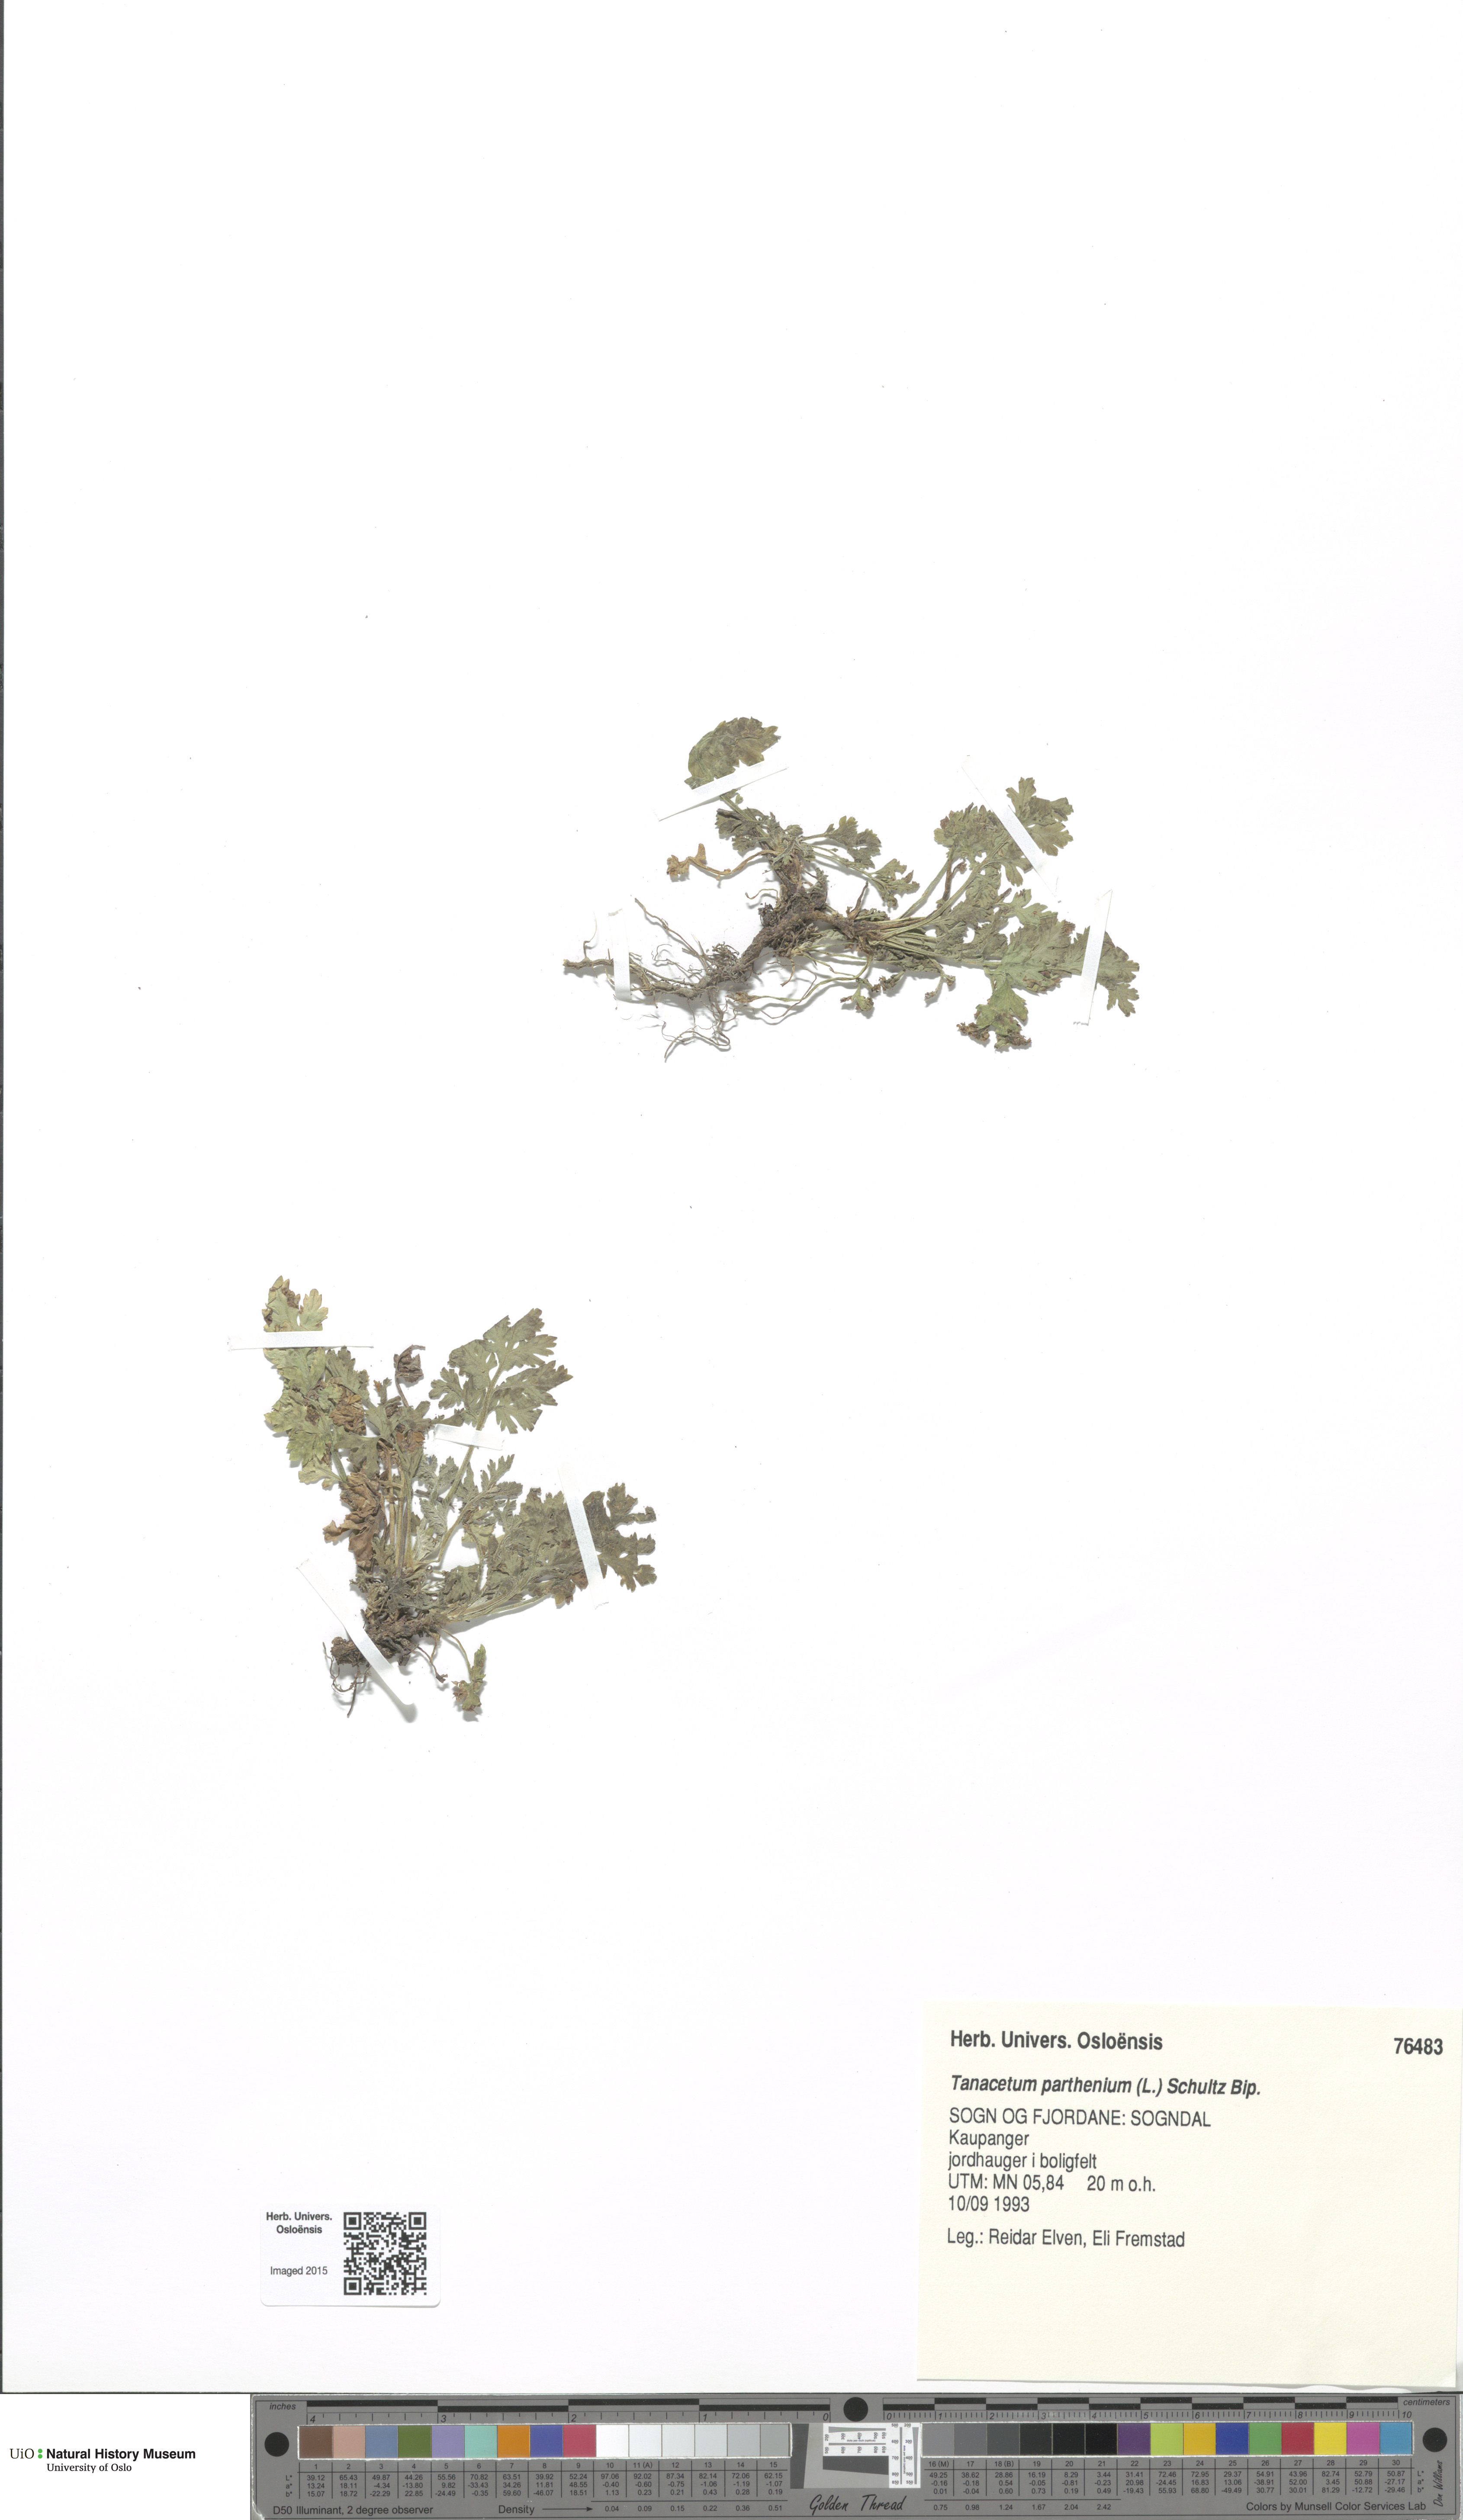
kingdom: Plantae
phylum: Tracheophyta
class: Magnoliopsida
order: Asterales
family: Asteraceae
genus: Tanacetum
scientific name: Tanacetum parthenium
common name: Feverfew
